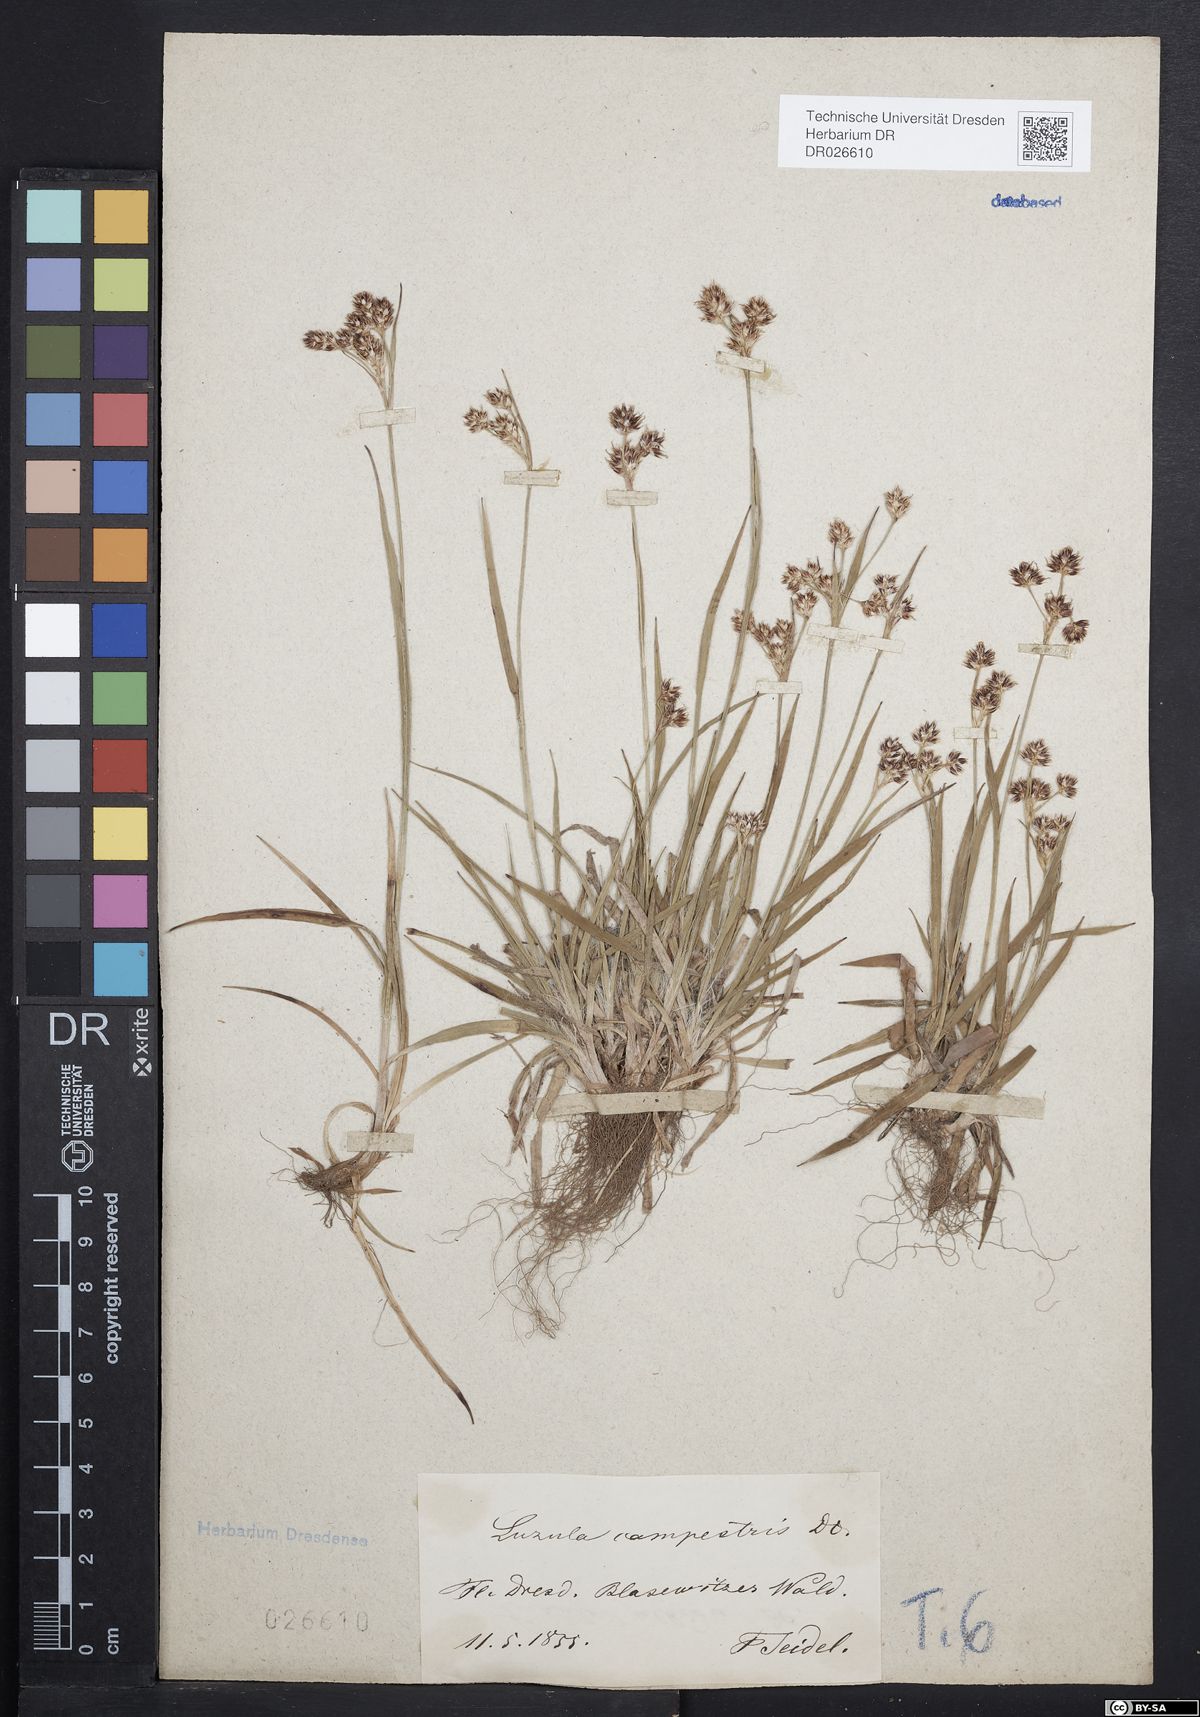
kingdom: Plantae
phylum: Tracheophyta
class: Liliopsida
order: Poales
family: Juncaceae
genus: Luzula
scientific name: Luzula campestris
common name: Field wood-rush
